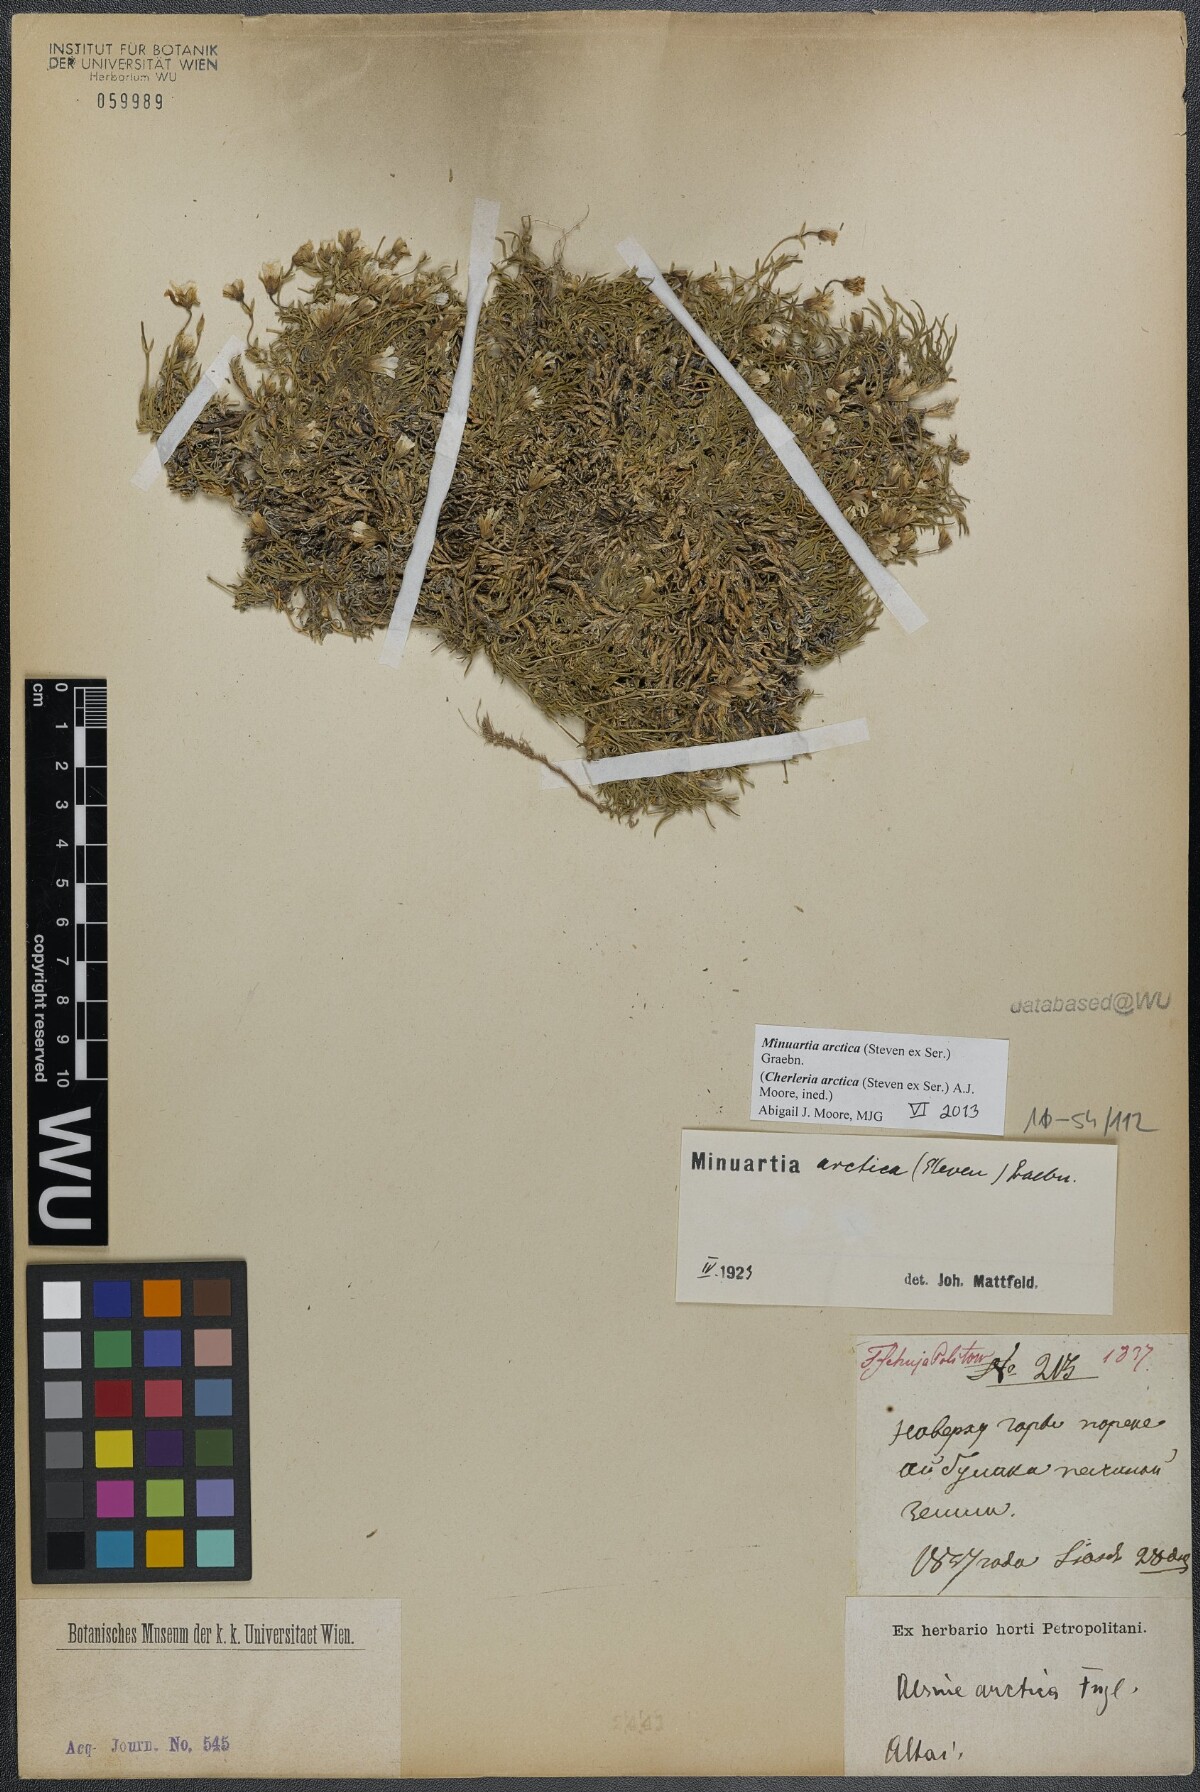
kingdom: Plantae
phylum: Tracheophyta
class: Magnoliopsida
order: Caryophyllales
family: Caryophyllaceae
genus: Cherleria
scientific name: Cherleria arctica
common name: Arctic sandwort
